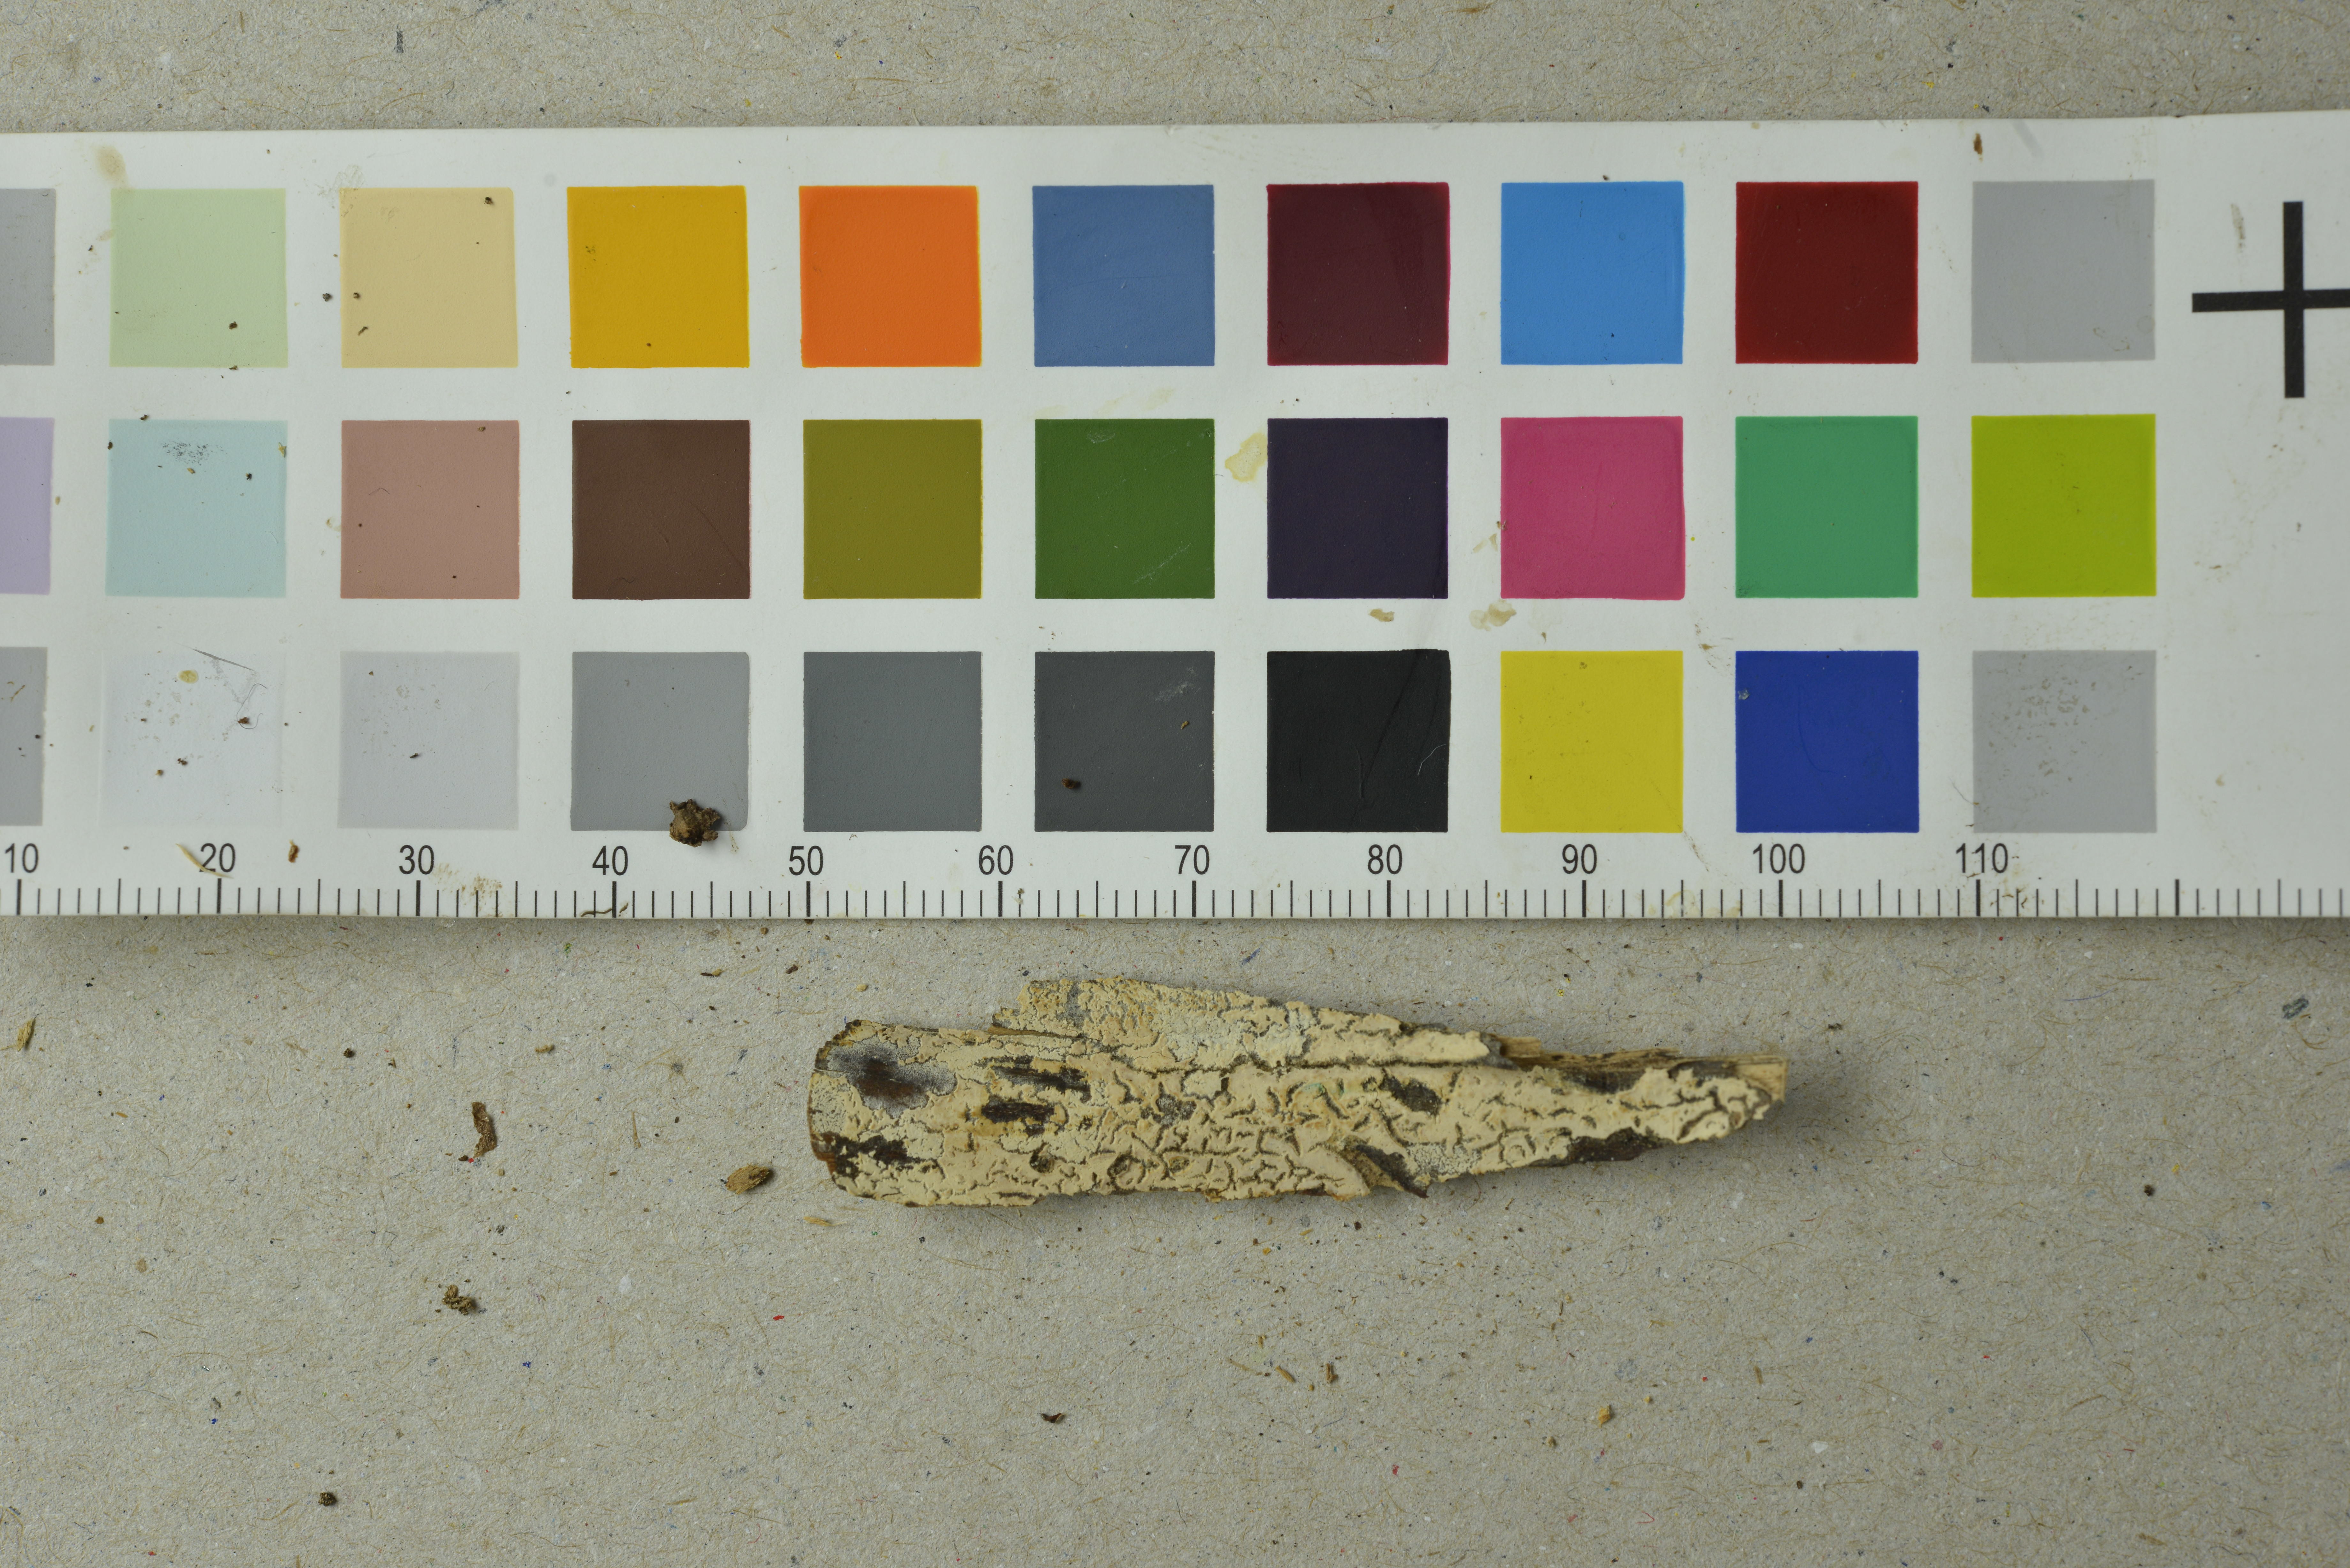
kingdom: Fungi
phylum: Basidiomycota
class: Agaricomycetes
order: Polyporales
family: Meruliaceae
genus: Hypochnicium
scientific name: Hypochnicium lundellii
